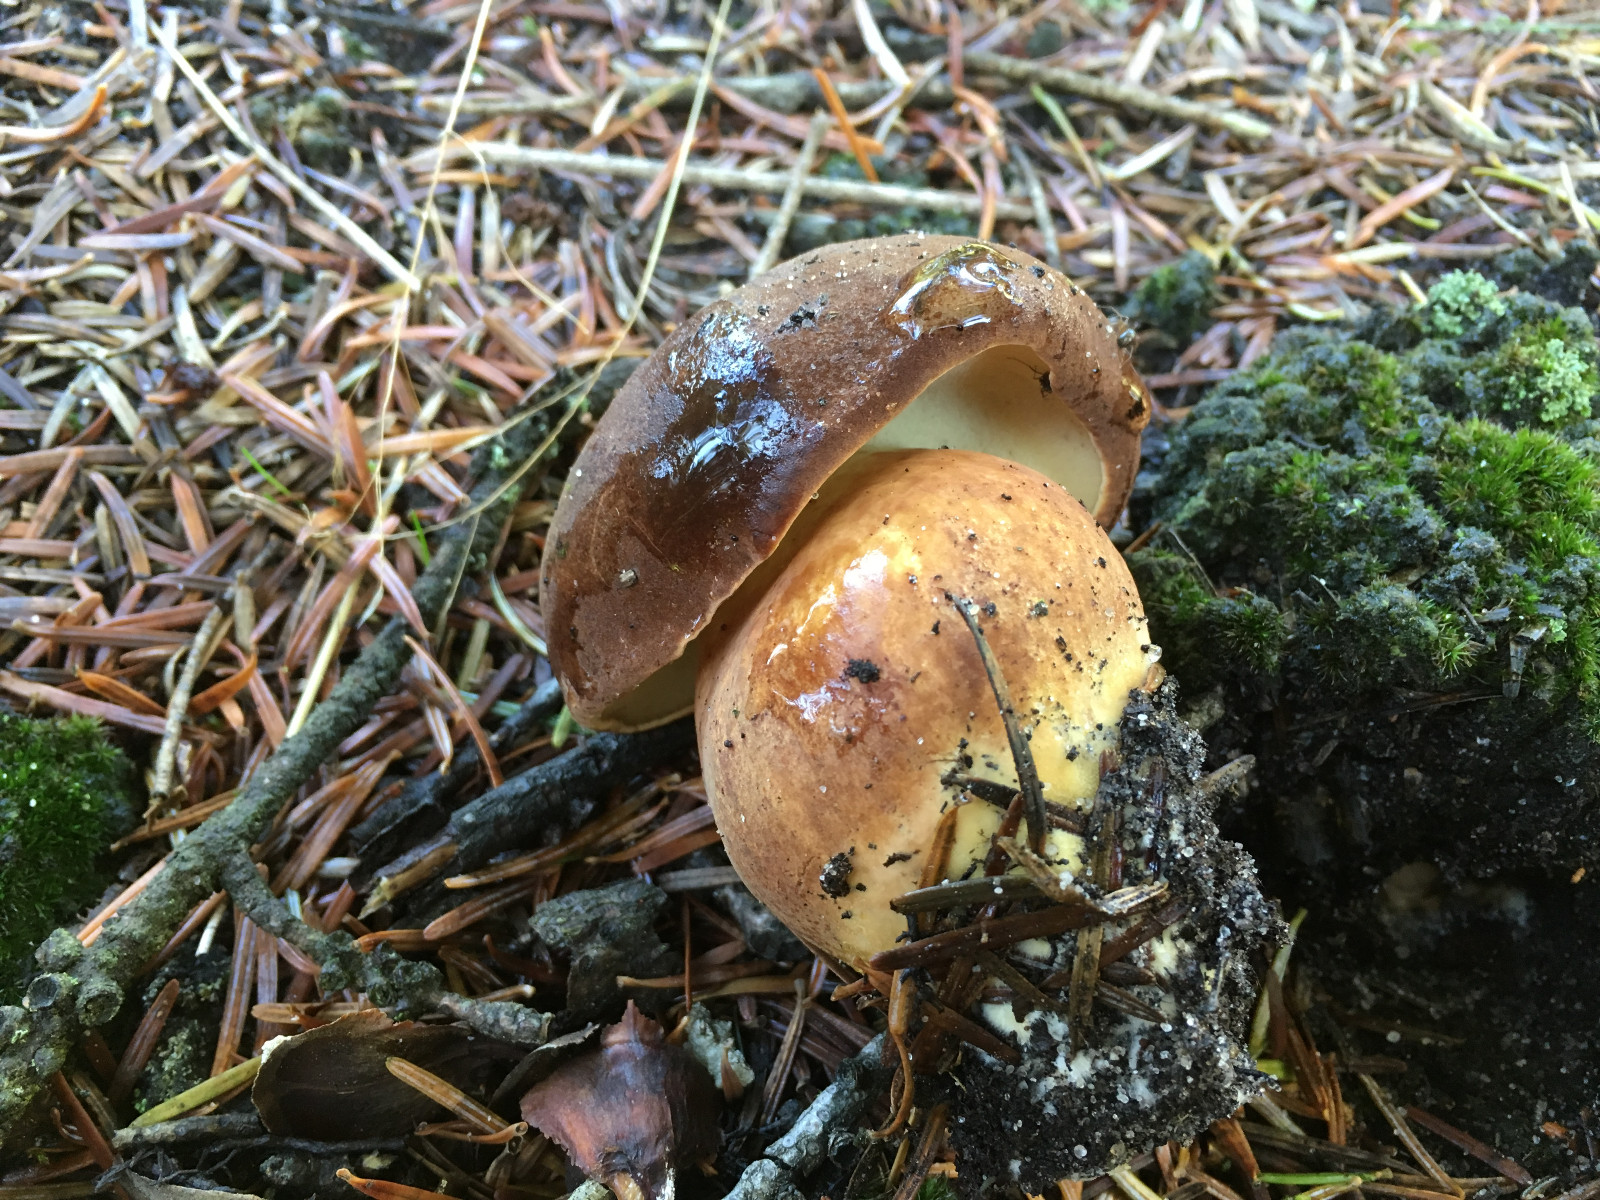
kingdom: Fungi
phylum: Basidiomycota
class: Agaricomycetes
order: Boletales
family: Boletaceae
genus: Imleria
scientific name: Imleria badia
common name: brunstokket rørhat
